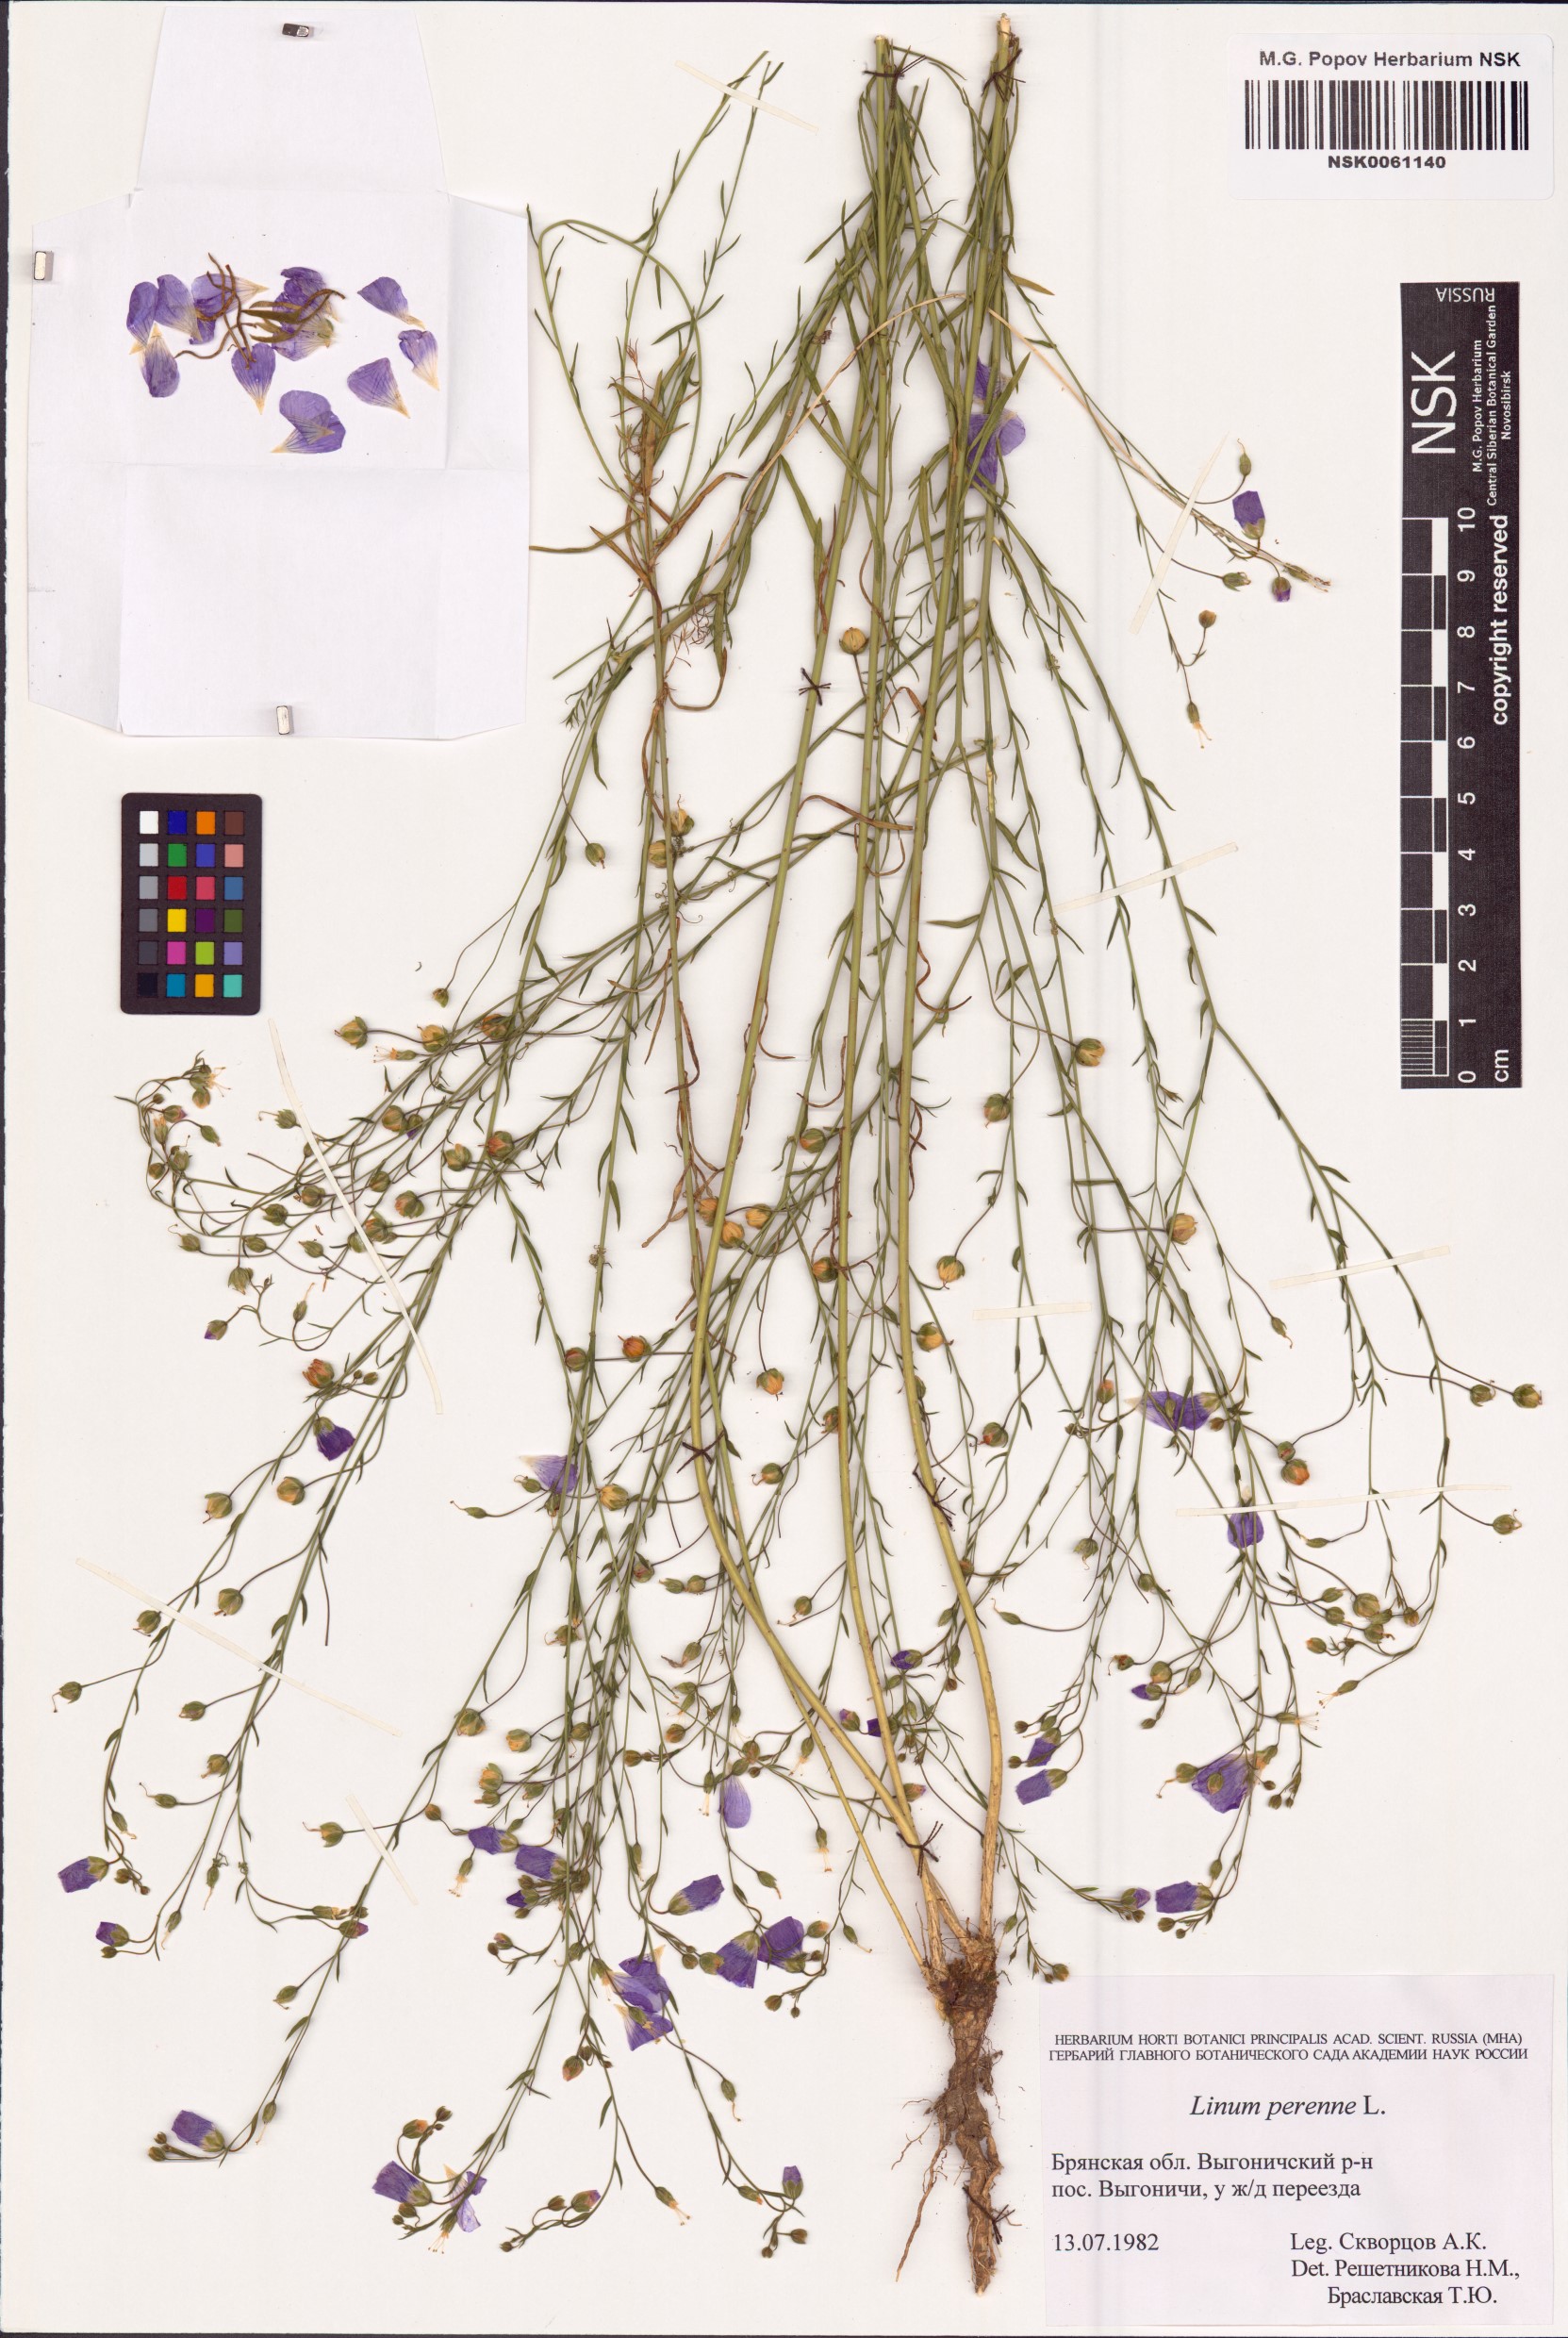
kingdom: Plantae
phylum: Tracheophyta
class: Magnoliopsida
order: Malpighiales
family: Linaceae
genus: Linum
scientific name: Linum perenne
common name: Blue flax
